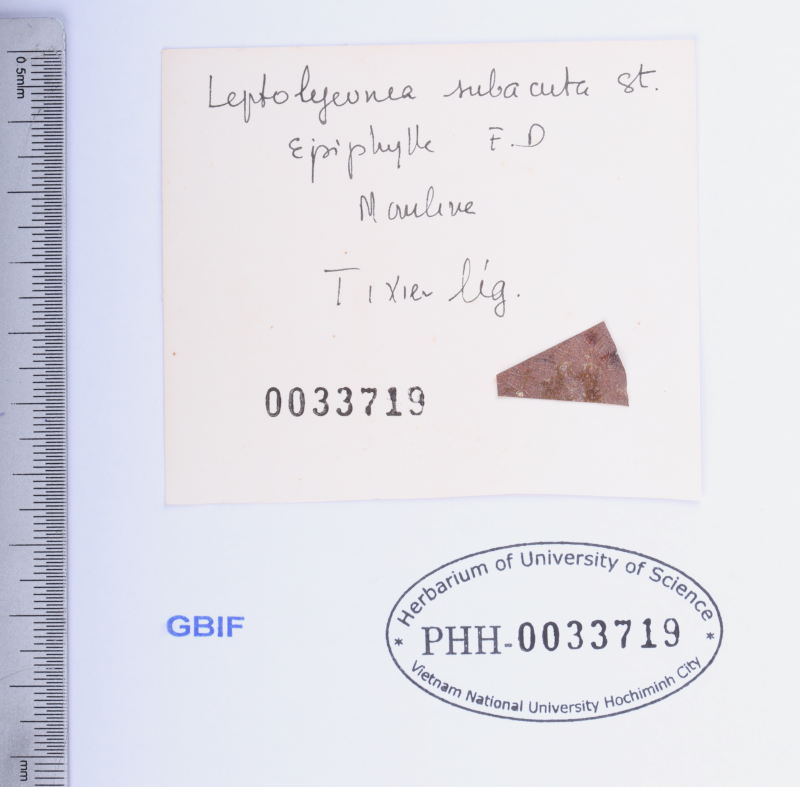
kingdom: Plantae
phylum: Marchantiophyta
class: Jungermanniopsida
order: Porellales
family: Lejeuneaceae
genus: Leptolejeunea
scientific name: Leptolejeunea elliptica
